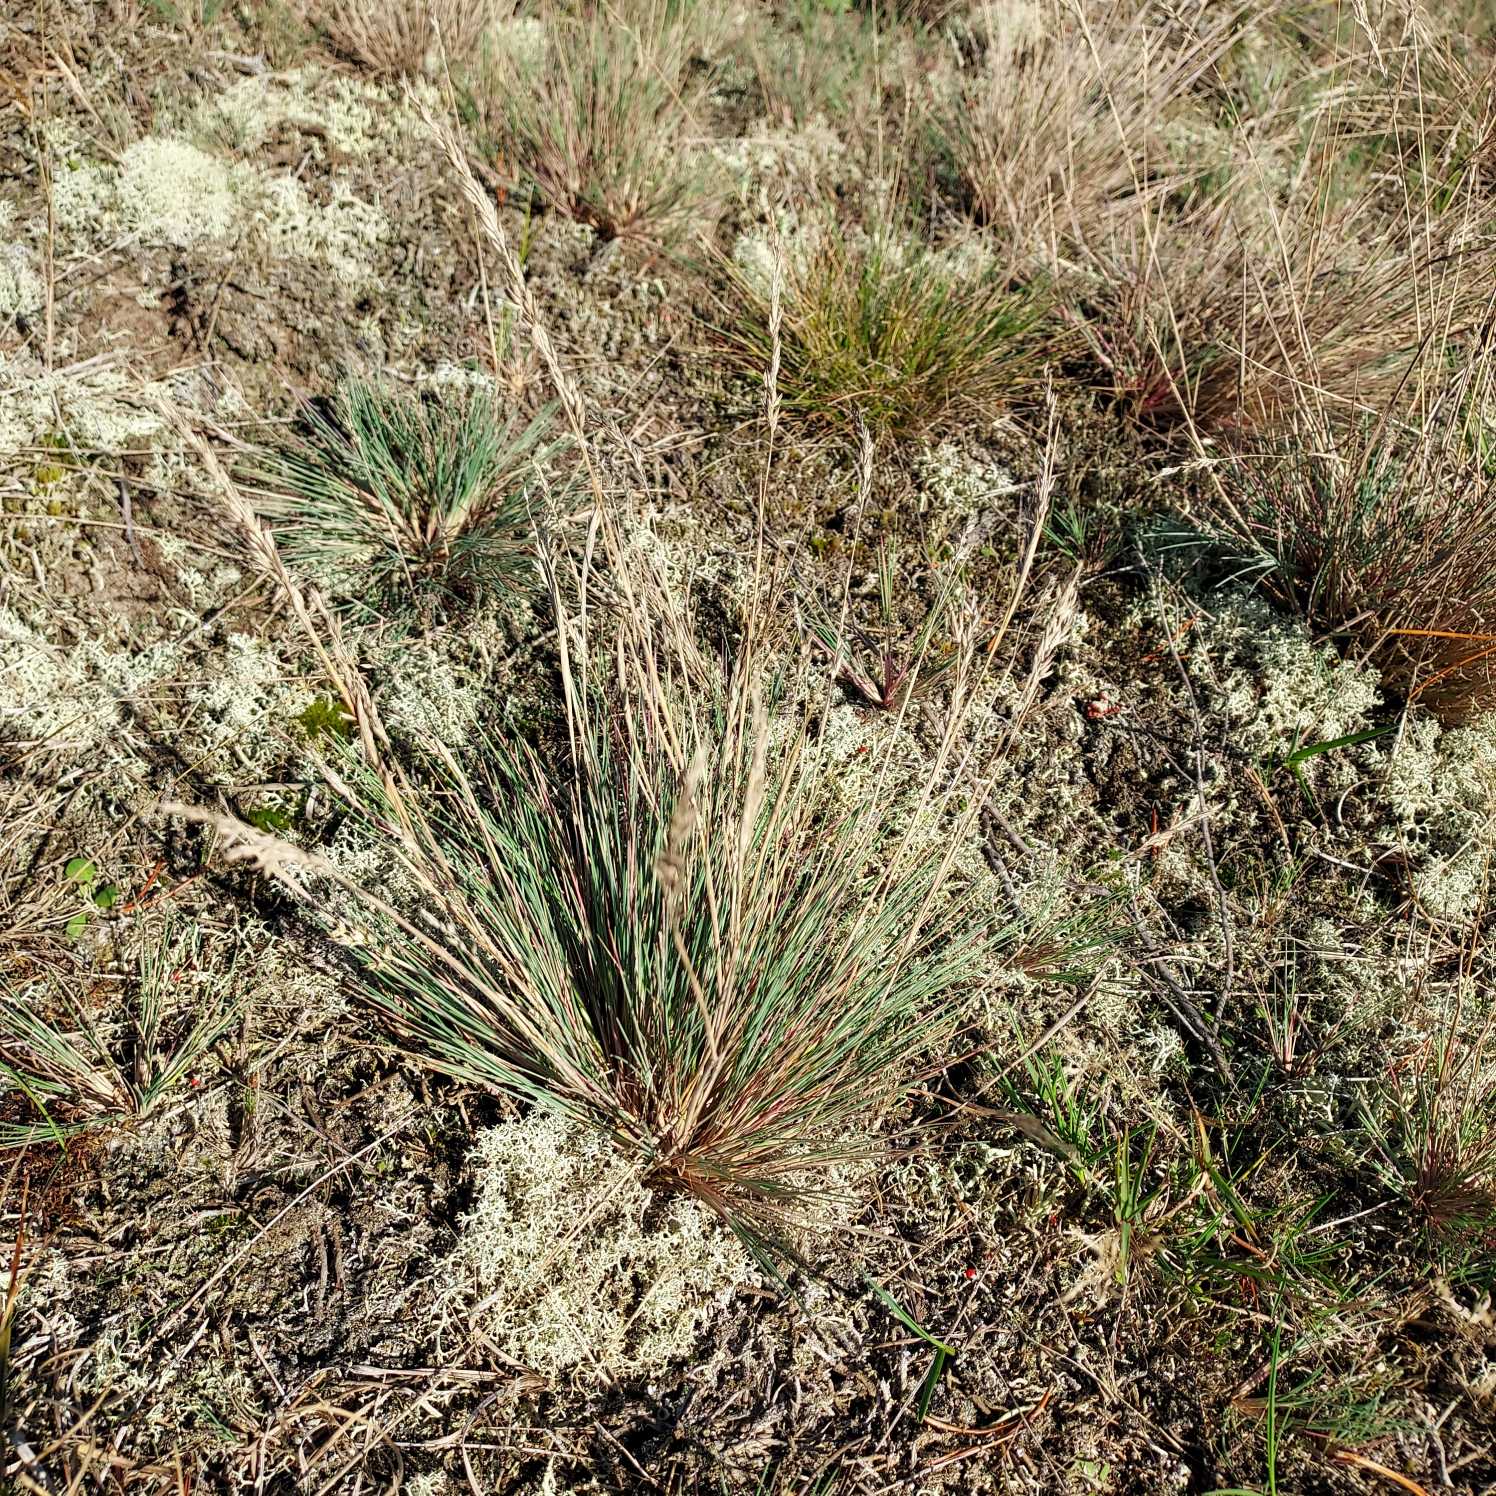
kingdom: Plantae
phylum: Tracheophyta
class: Liliopsida
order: Poales
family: Poaceae
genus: Corynephorus
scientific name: Corynephorus canescens
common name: Sandskæg
